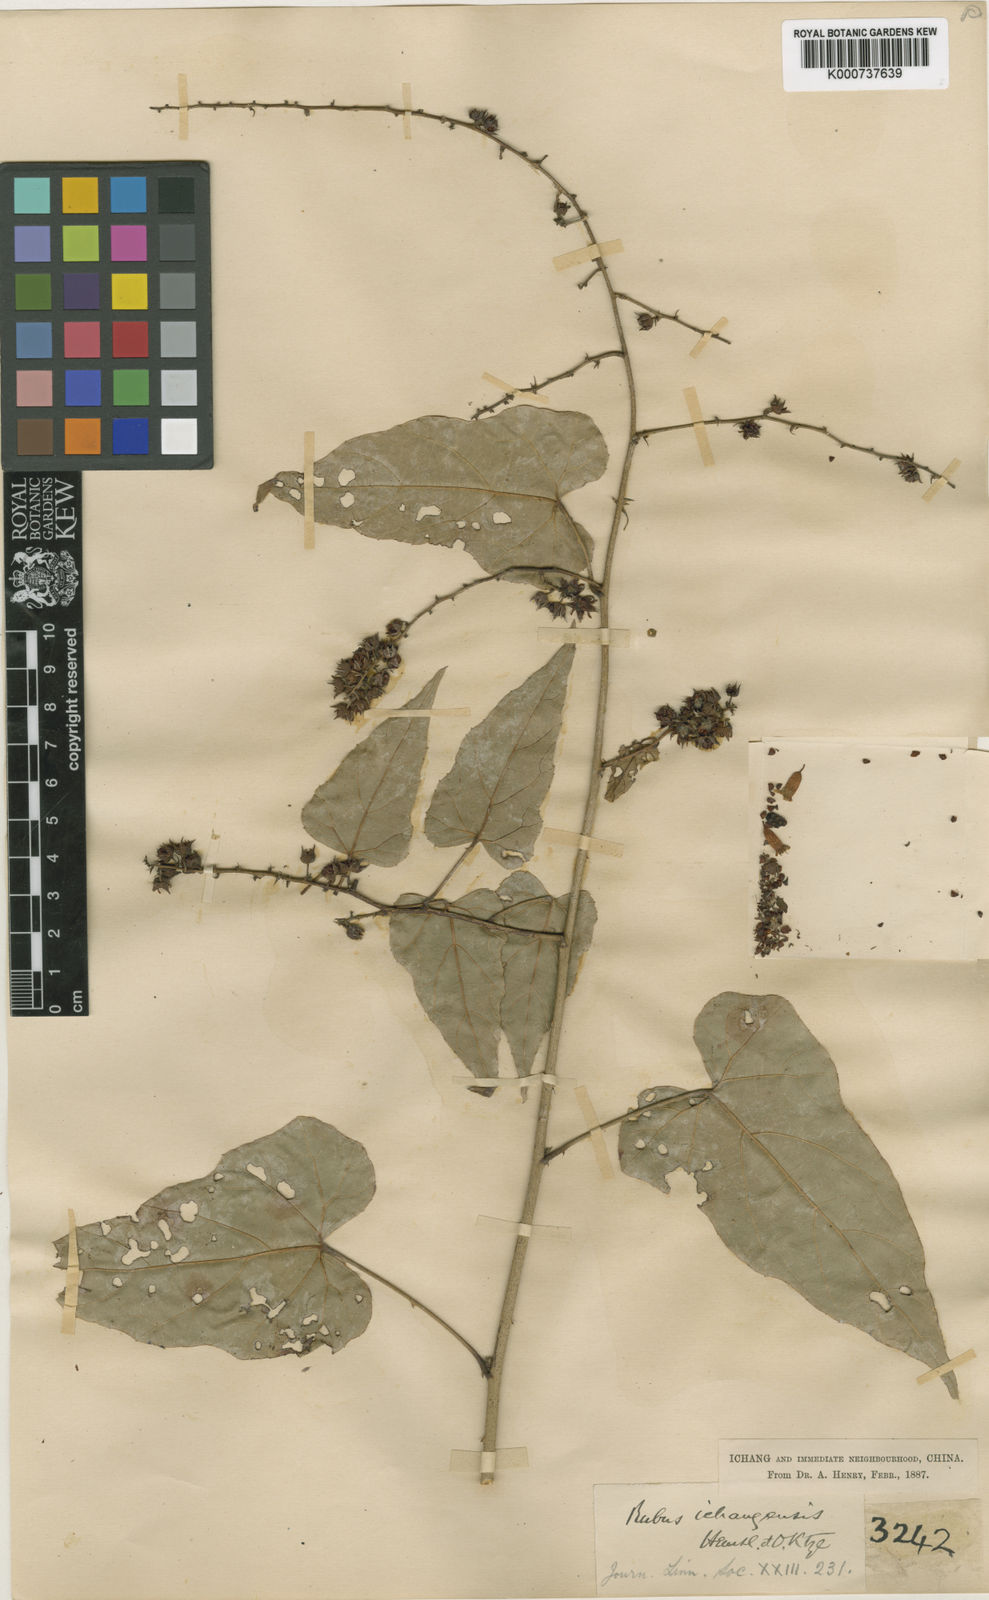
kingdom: Plantae
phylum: Tracheophyta
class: Magnoliopsida
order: Rosales
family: Rosaceae
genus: Rubus
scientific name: Rubus ichangensis
